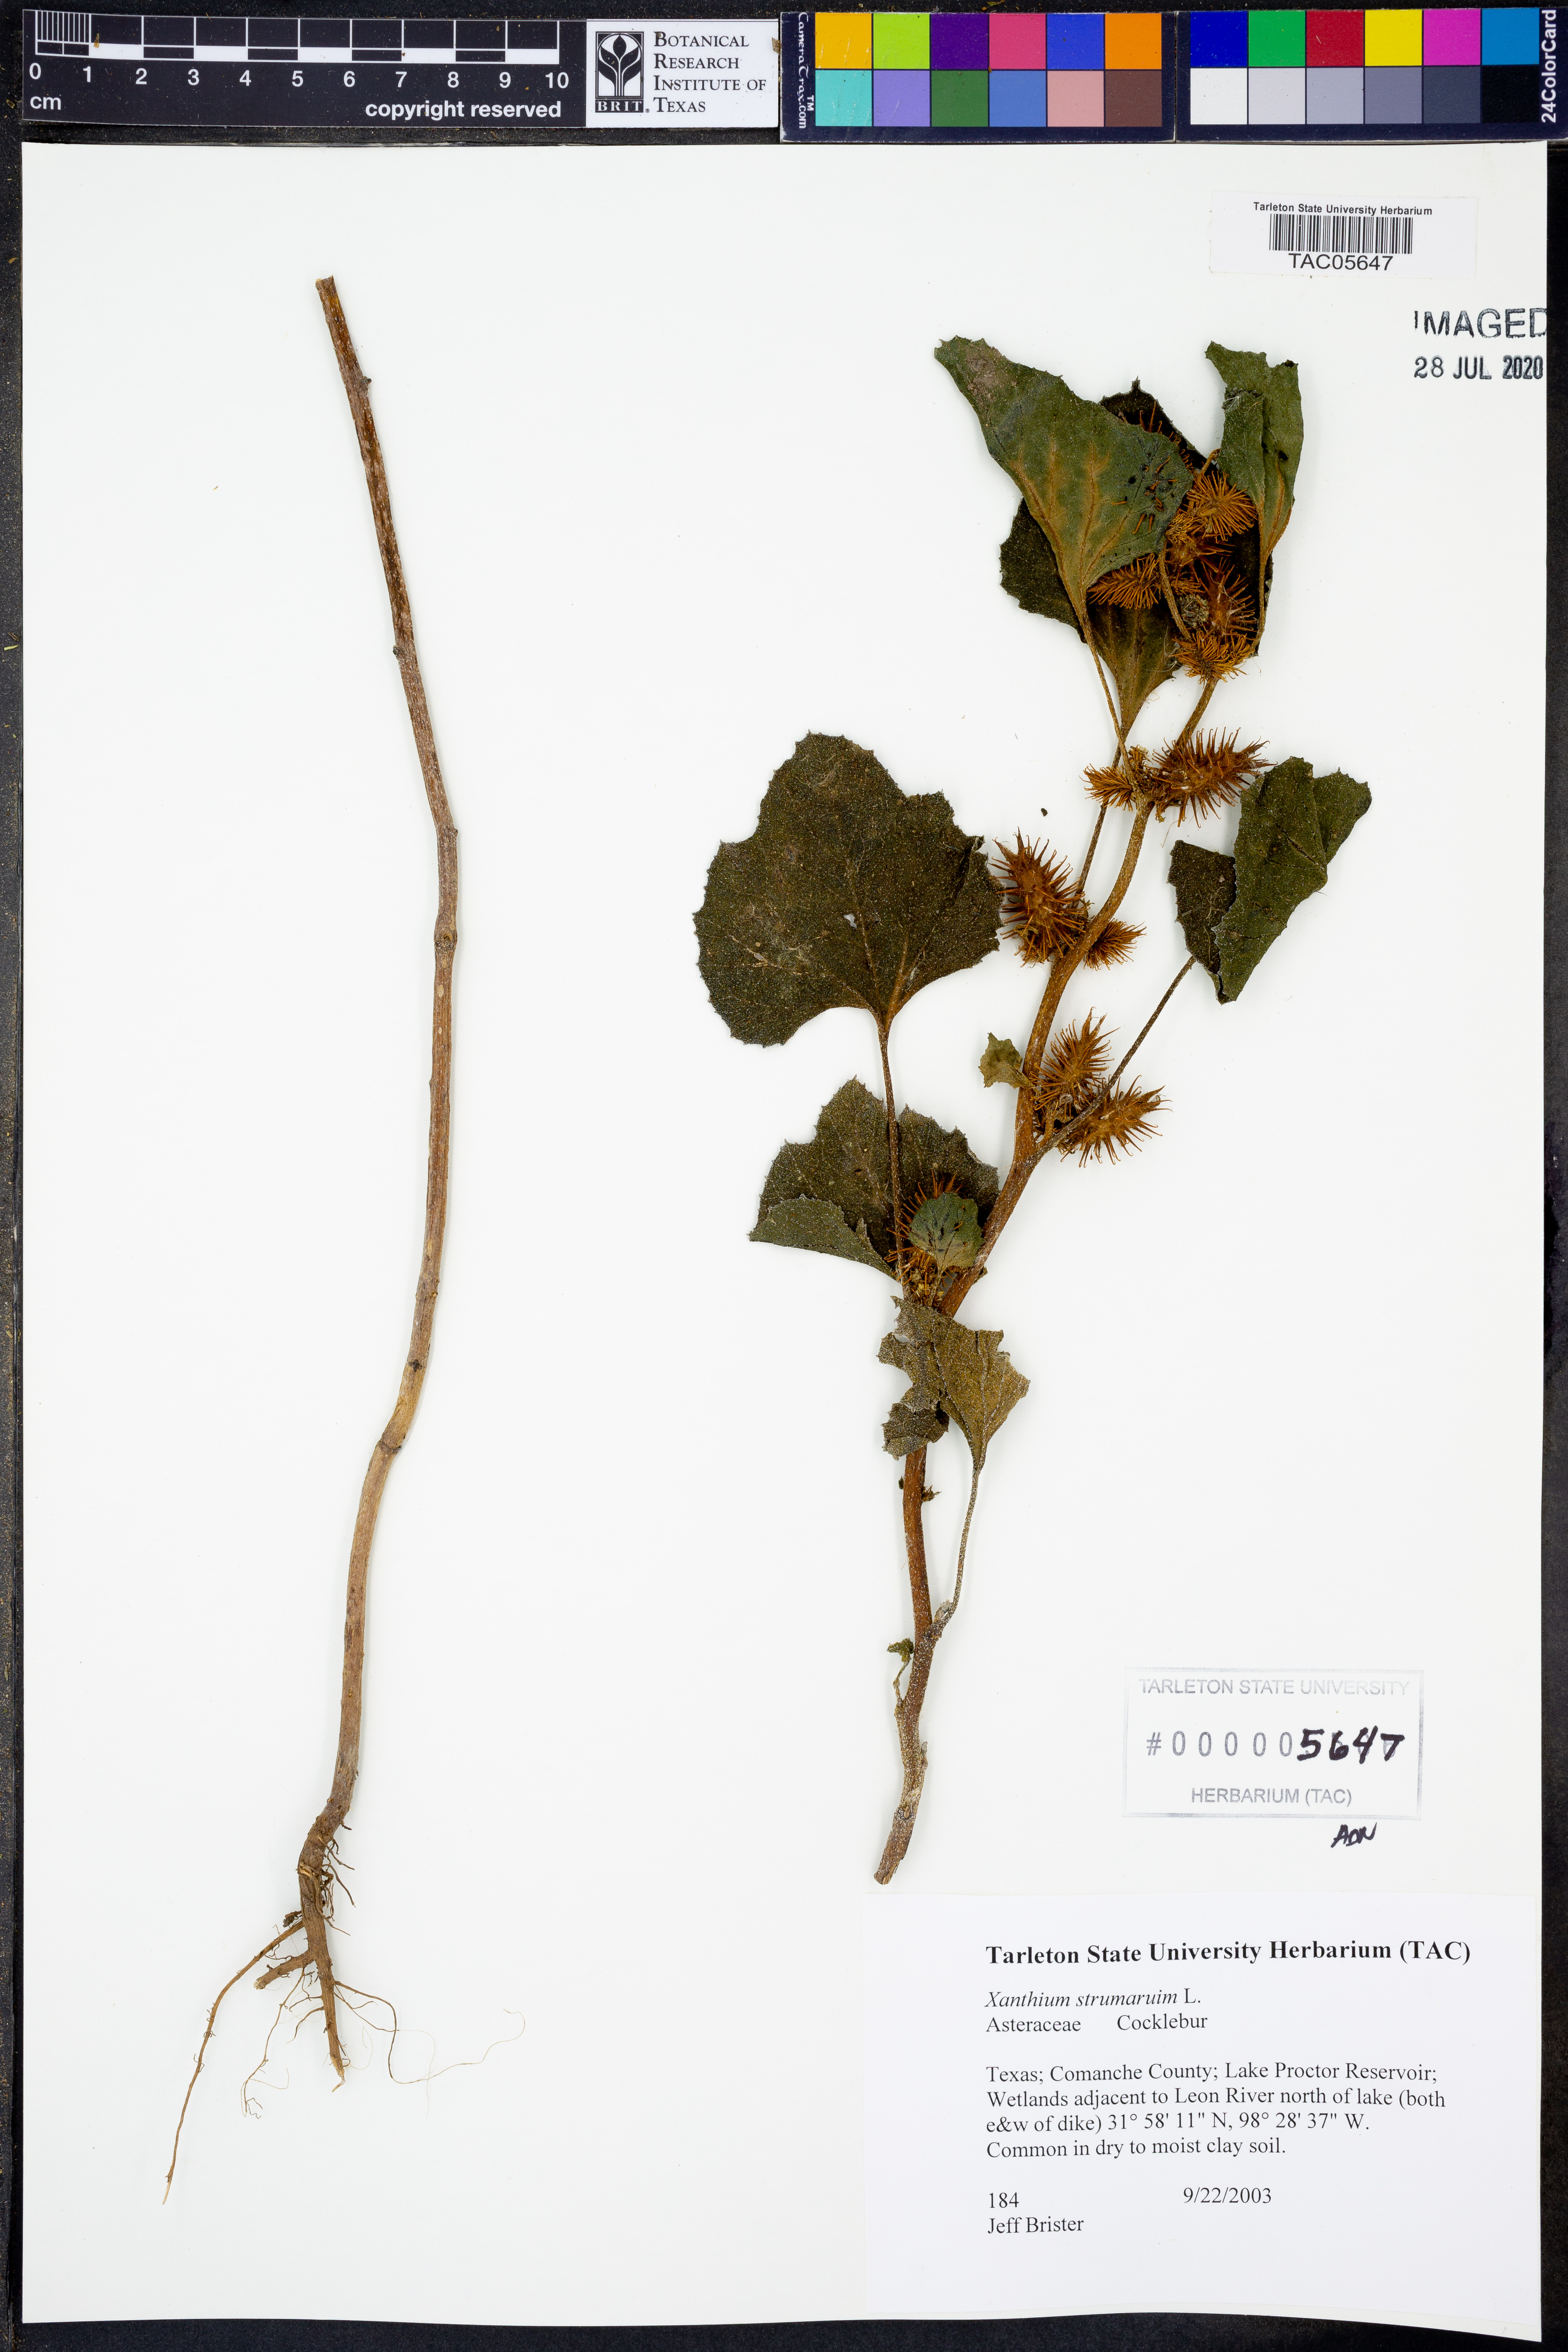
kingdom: Plantae
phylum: Tracheophyta
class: Magnoliopsida
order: Asterales
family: Asteraceae
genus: Xanthium
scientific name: Xanthium strumarium
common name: Rough cocklebur
